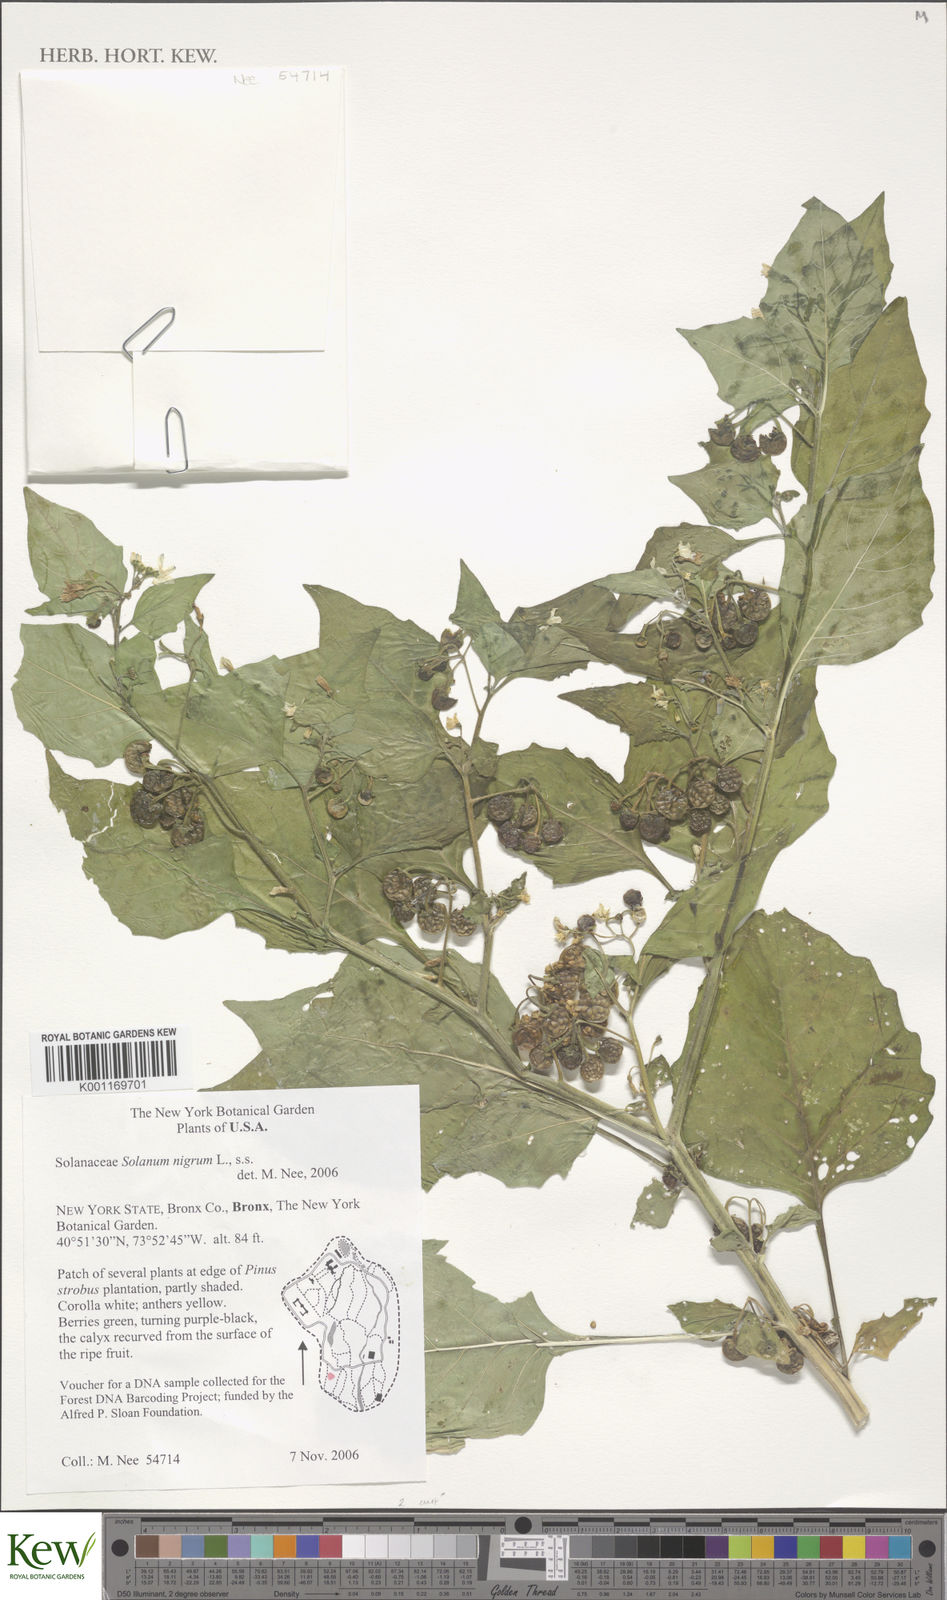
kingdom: Plantae
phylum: Tracheophyta
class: Magnoliopsida
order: Solanales
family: Solanaceae
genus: Solanum
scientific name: Solanum nigrum
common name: Black nightshade
